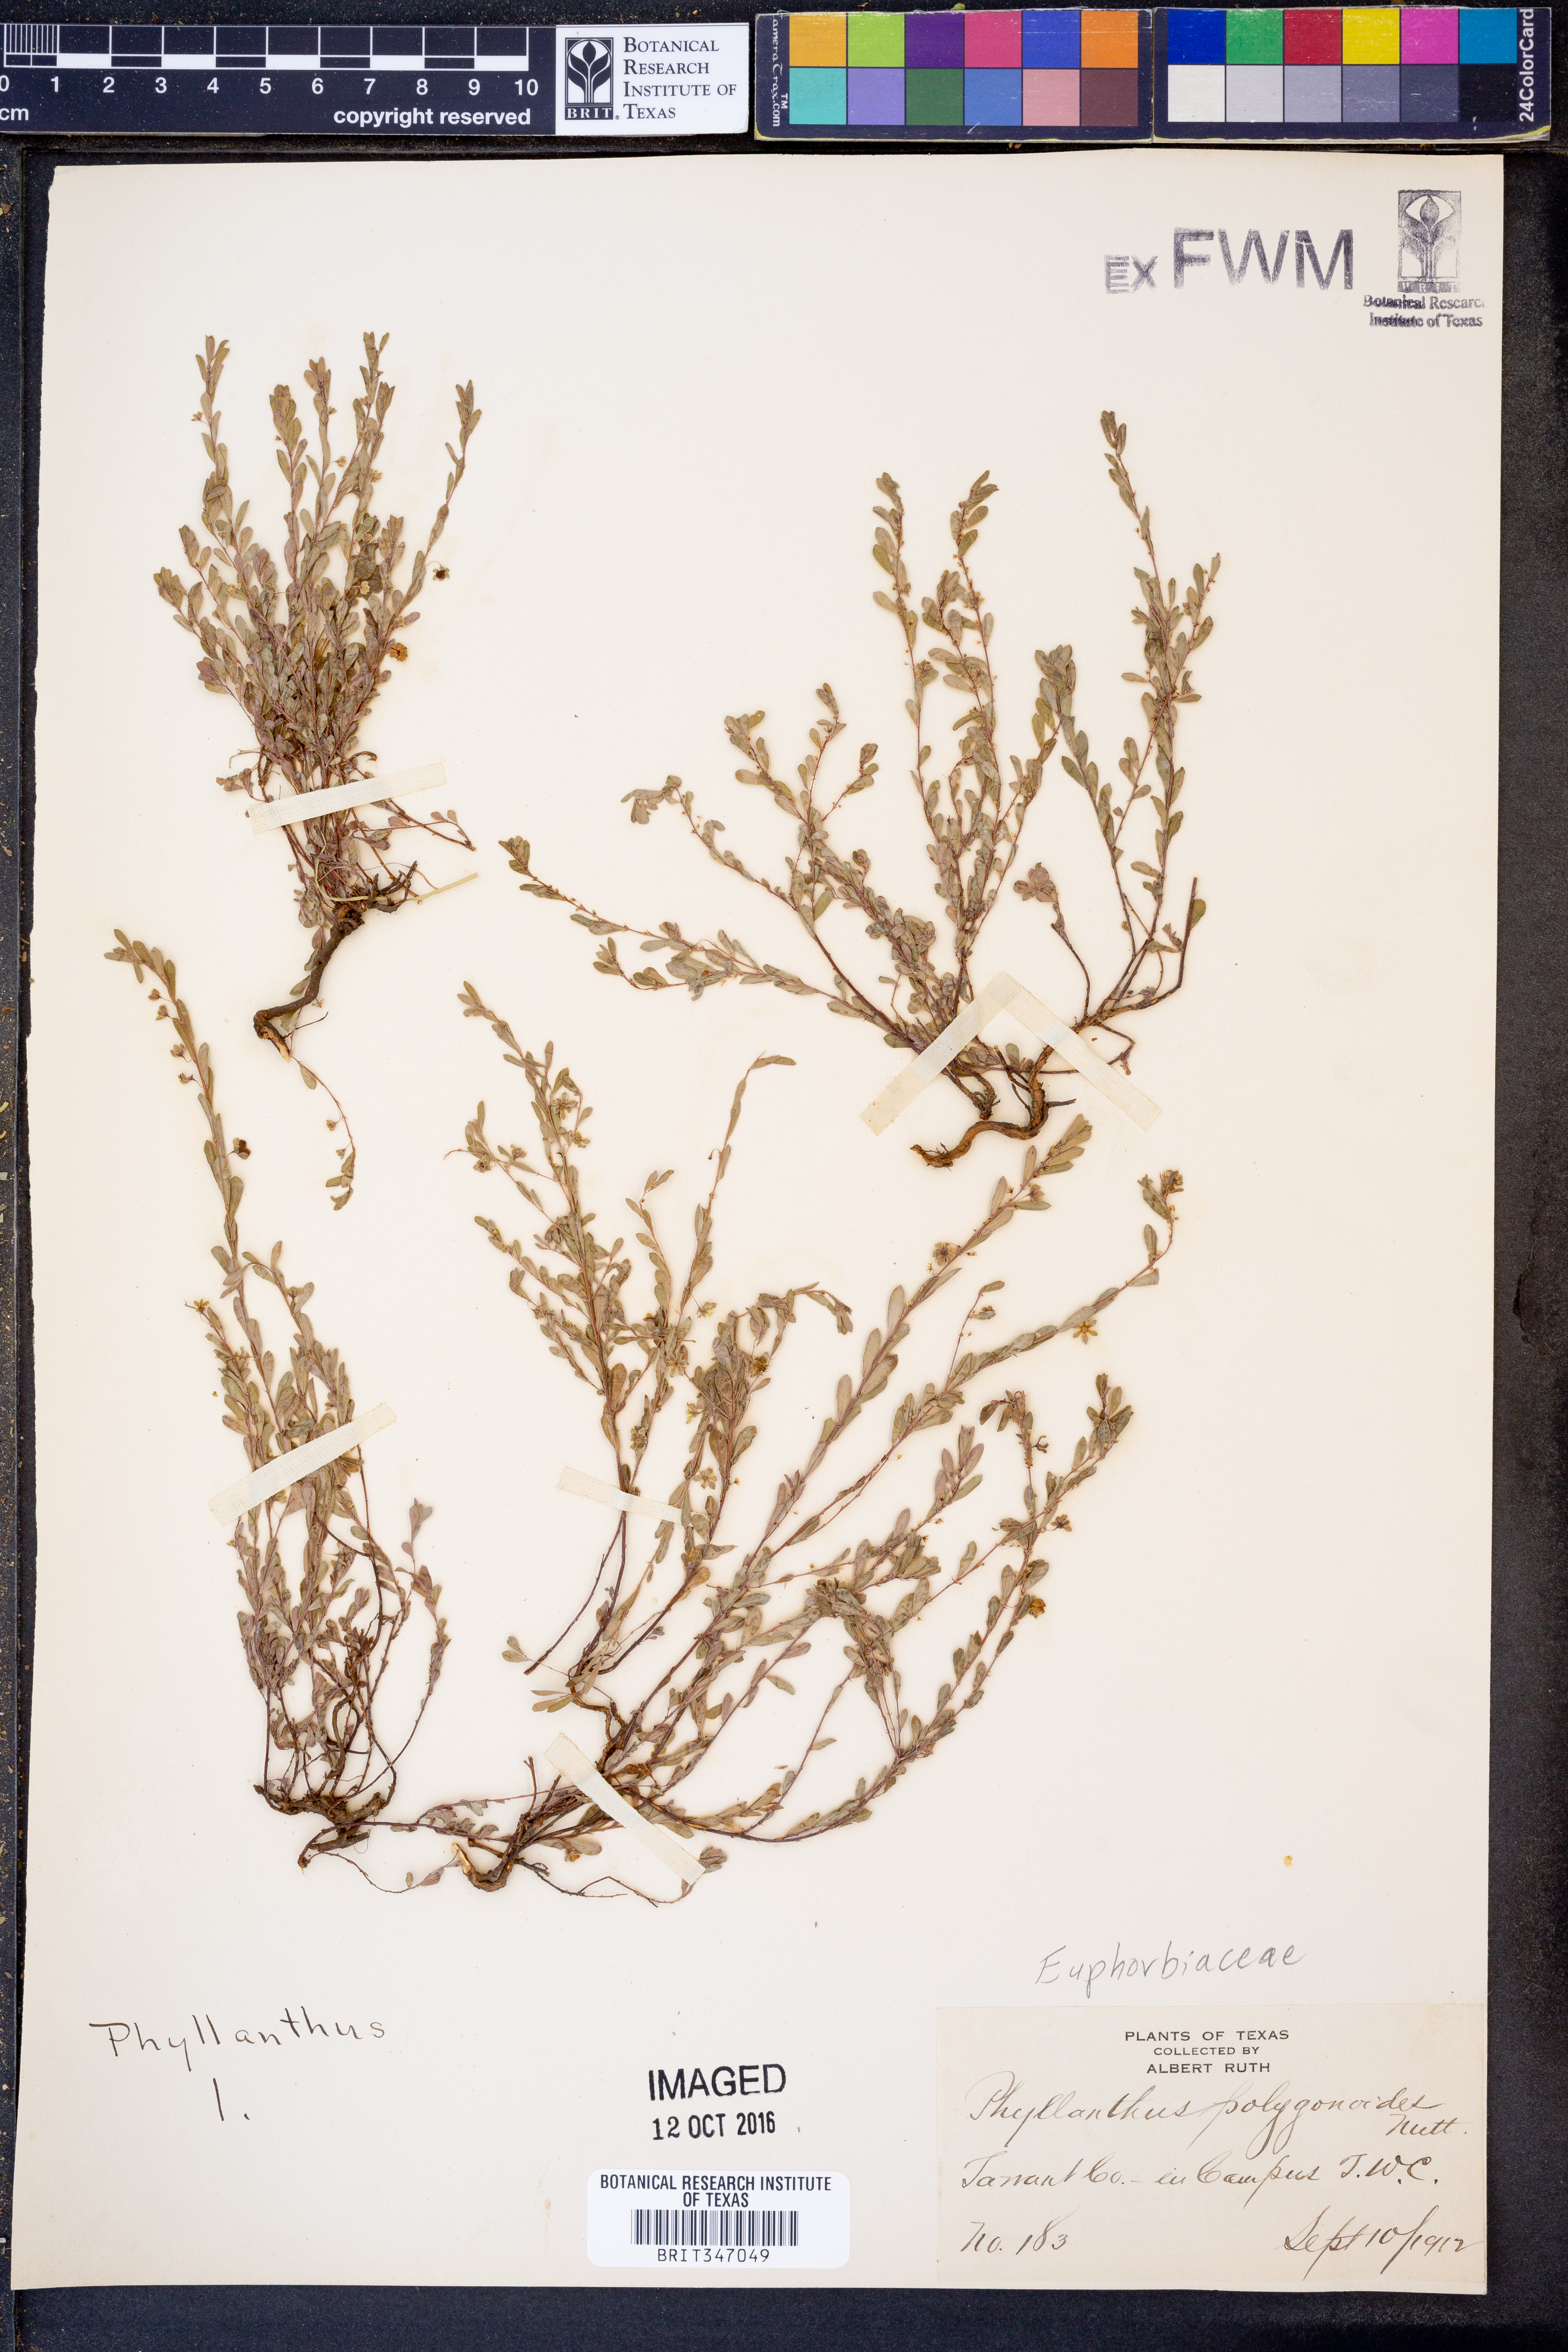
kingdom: Plantae
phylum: Tracheophyta
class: Magnoliopsida
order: Malpighiales
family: Phyllanthaceae
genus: Phyllanthus
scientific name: Phyllanthus polygonoides
